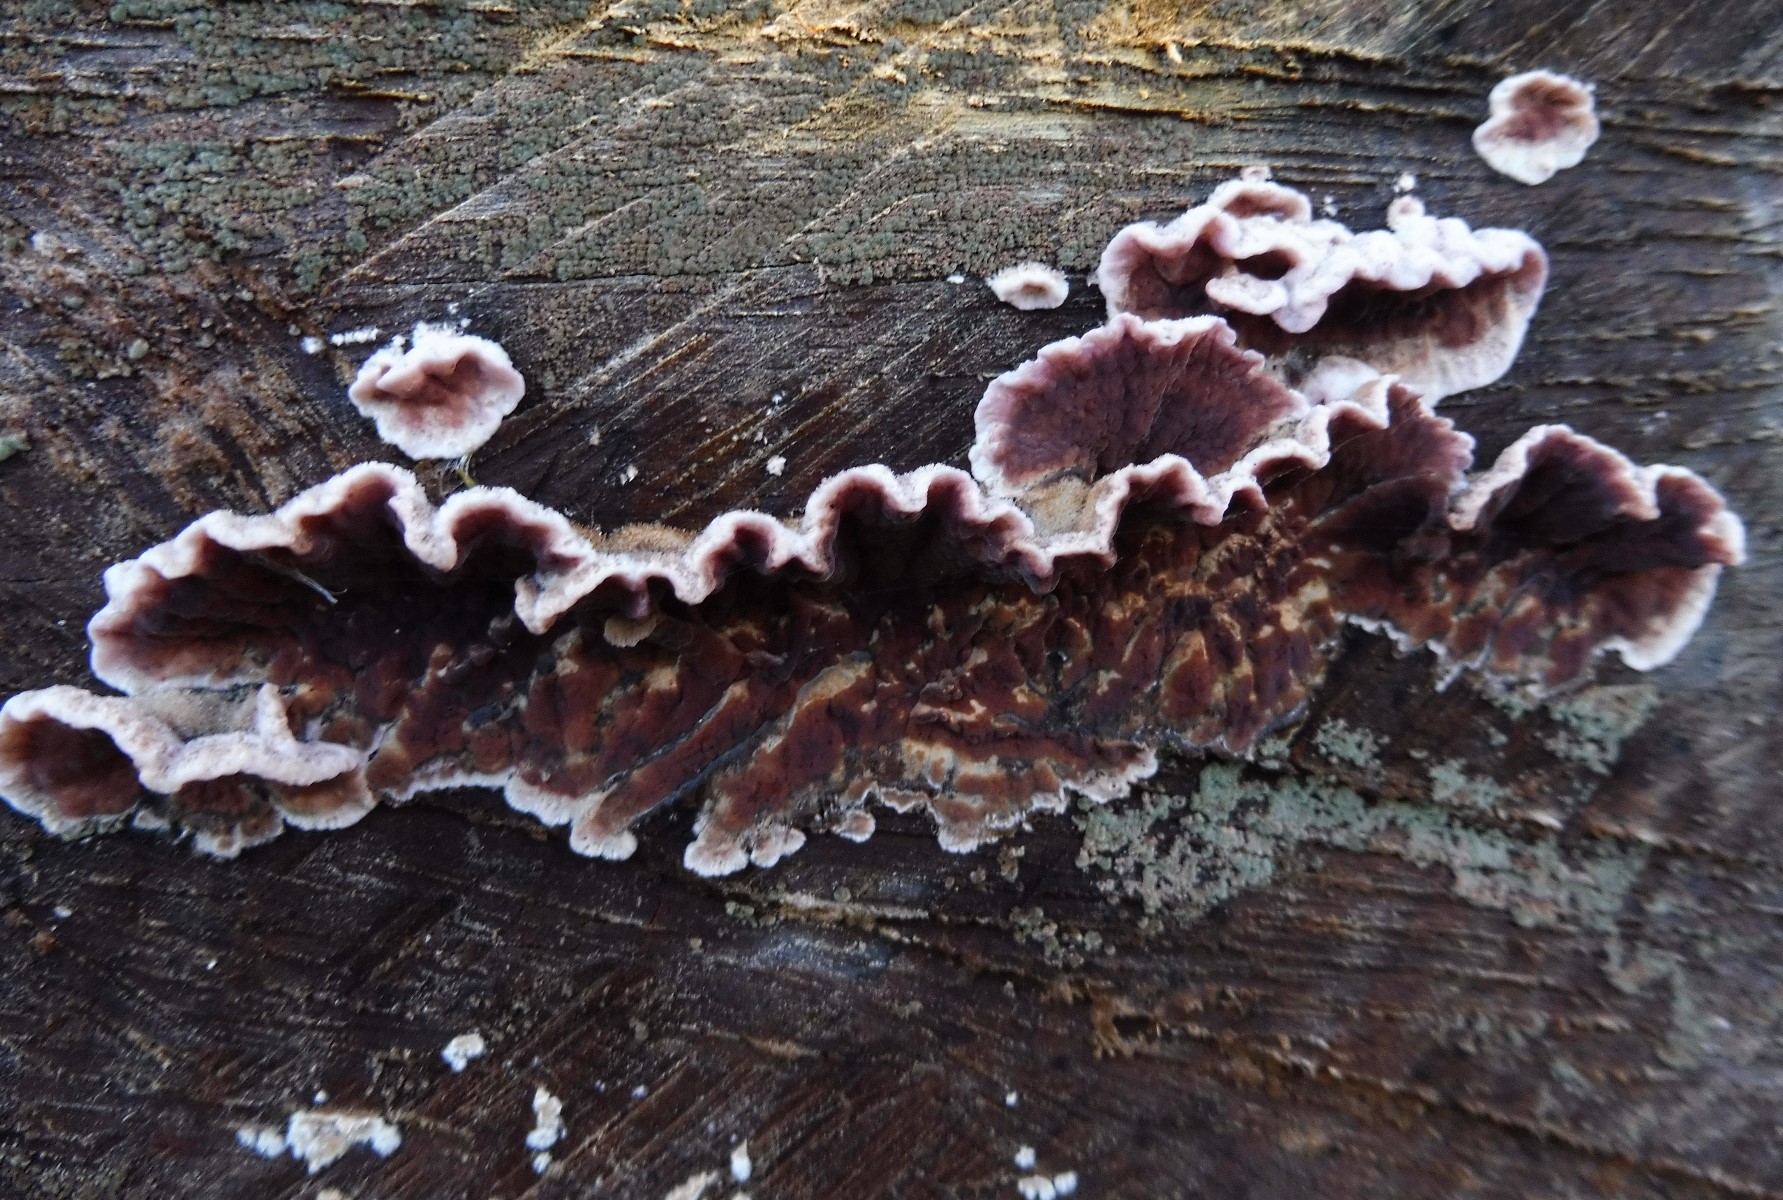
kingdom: Fungi
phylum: Basidiomycota
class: Agaricomycetes
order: Agaricales
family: Cyphellaceae
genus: Chondrostereum
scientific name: Chondrostereum purpureum
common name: purpurlædersvamp
